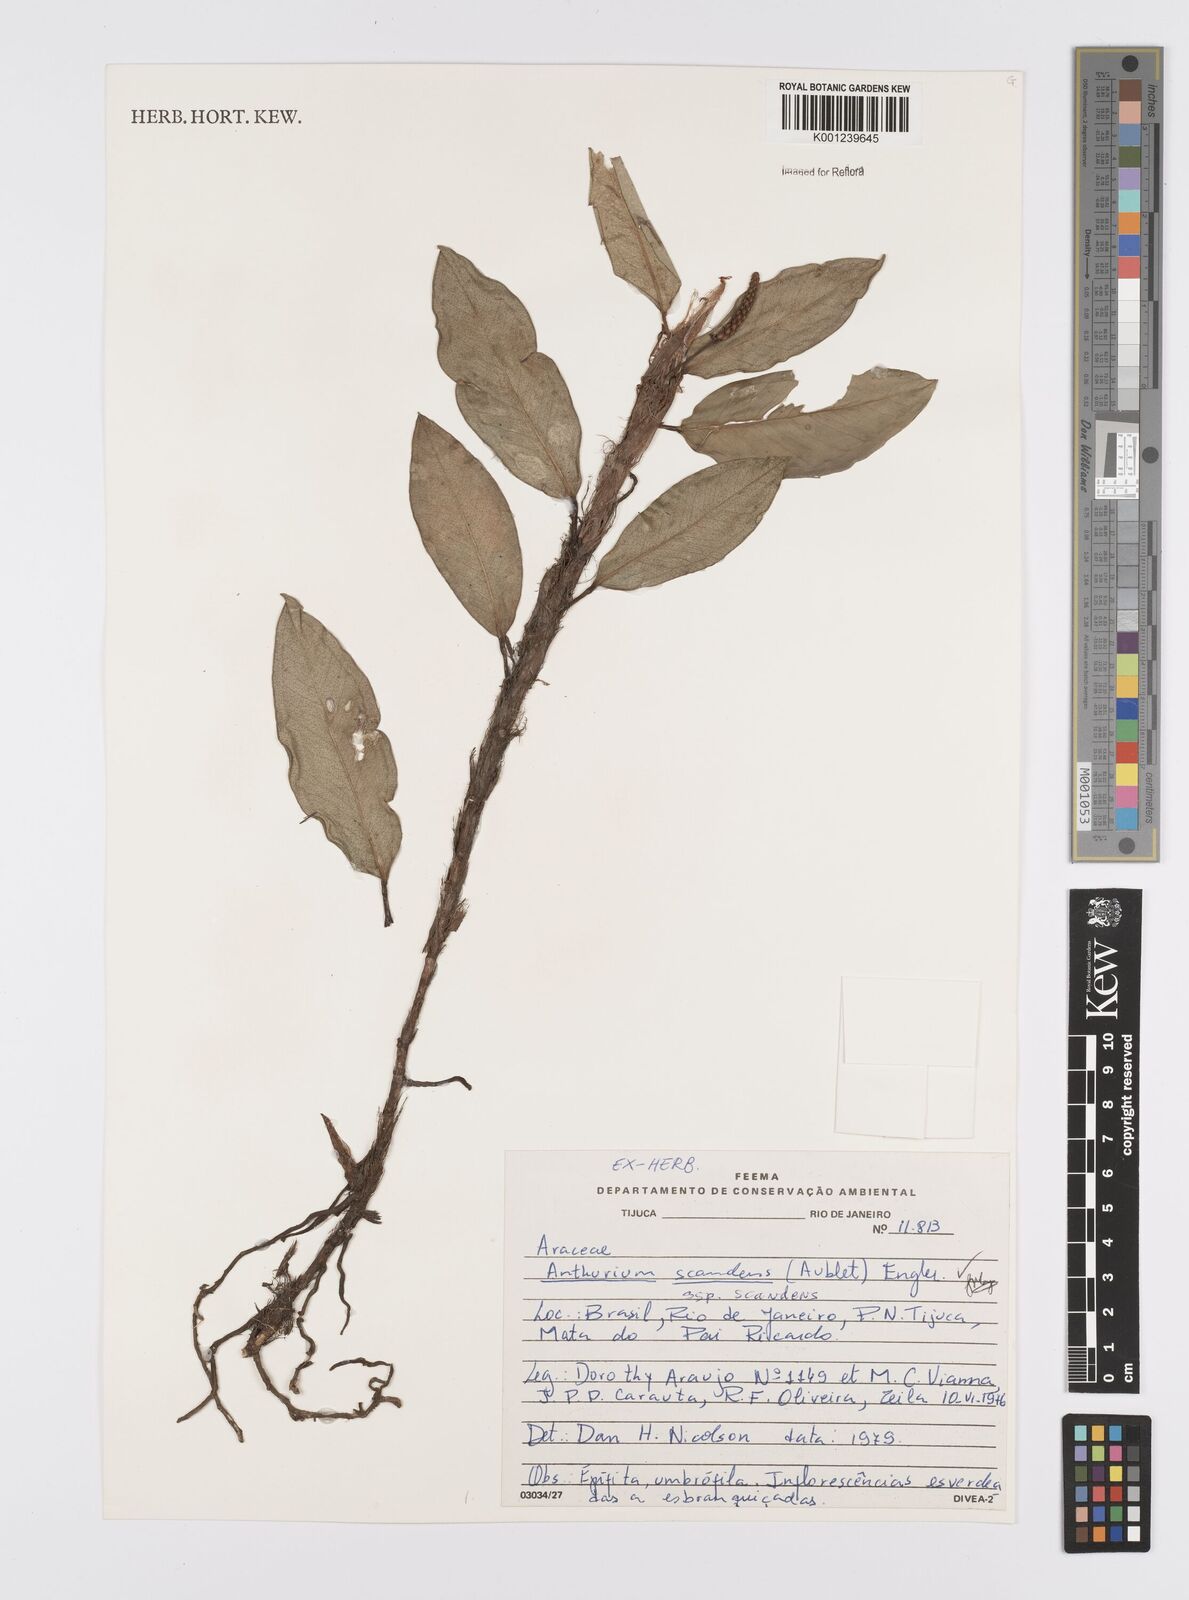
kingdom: Plantae
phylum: Tracheophyta
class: Liliopsida
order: Alismatales
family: Araceae
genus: Anthurium
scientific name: Anthurium scandens
